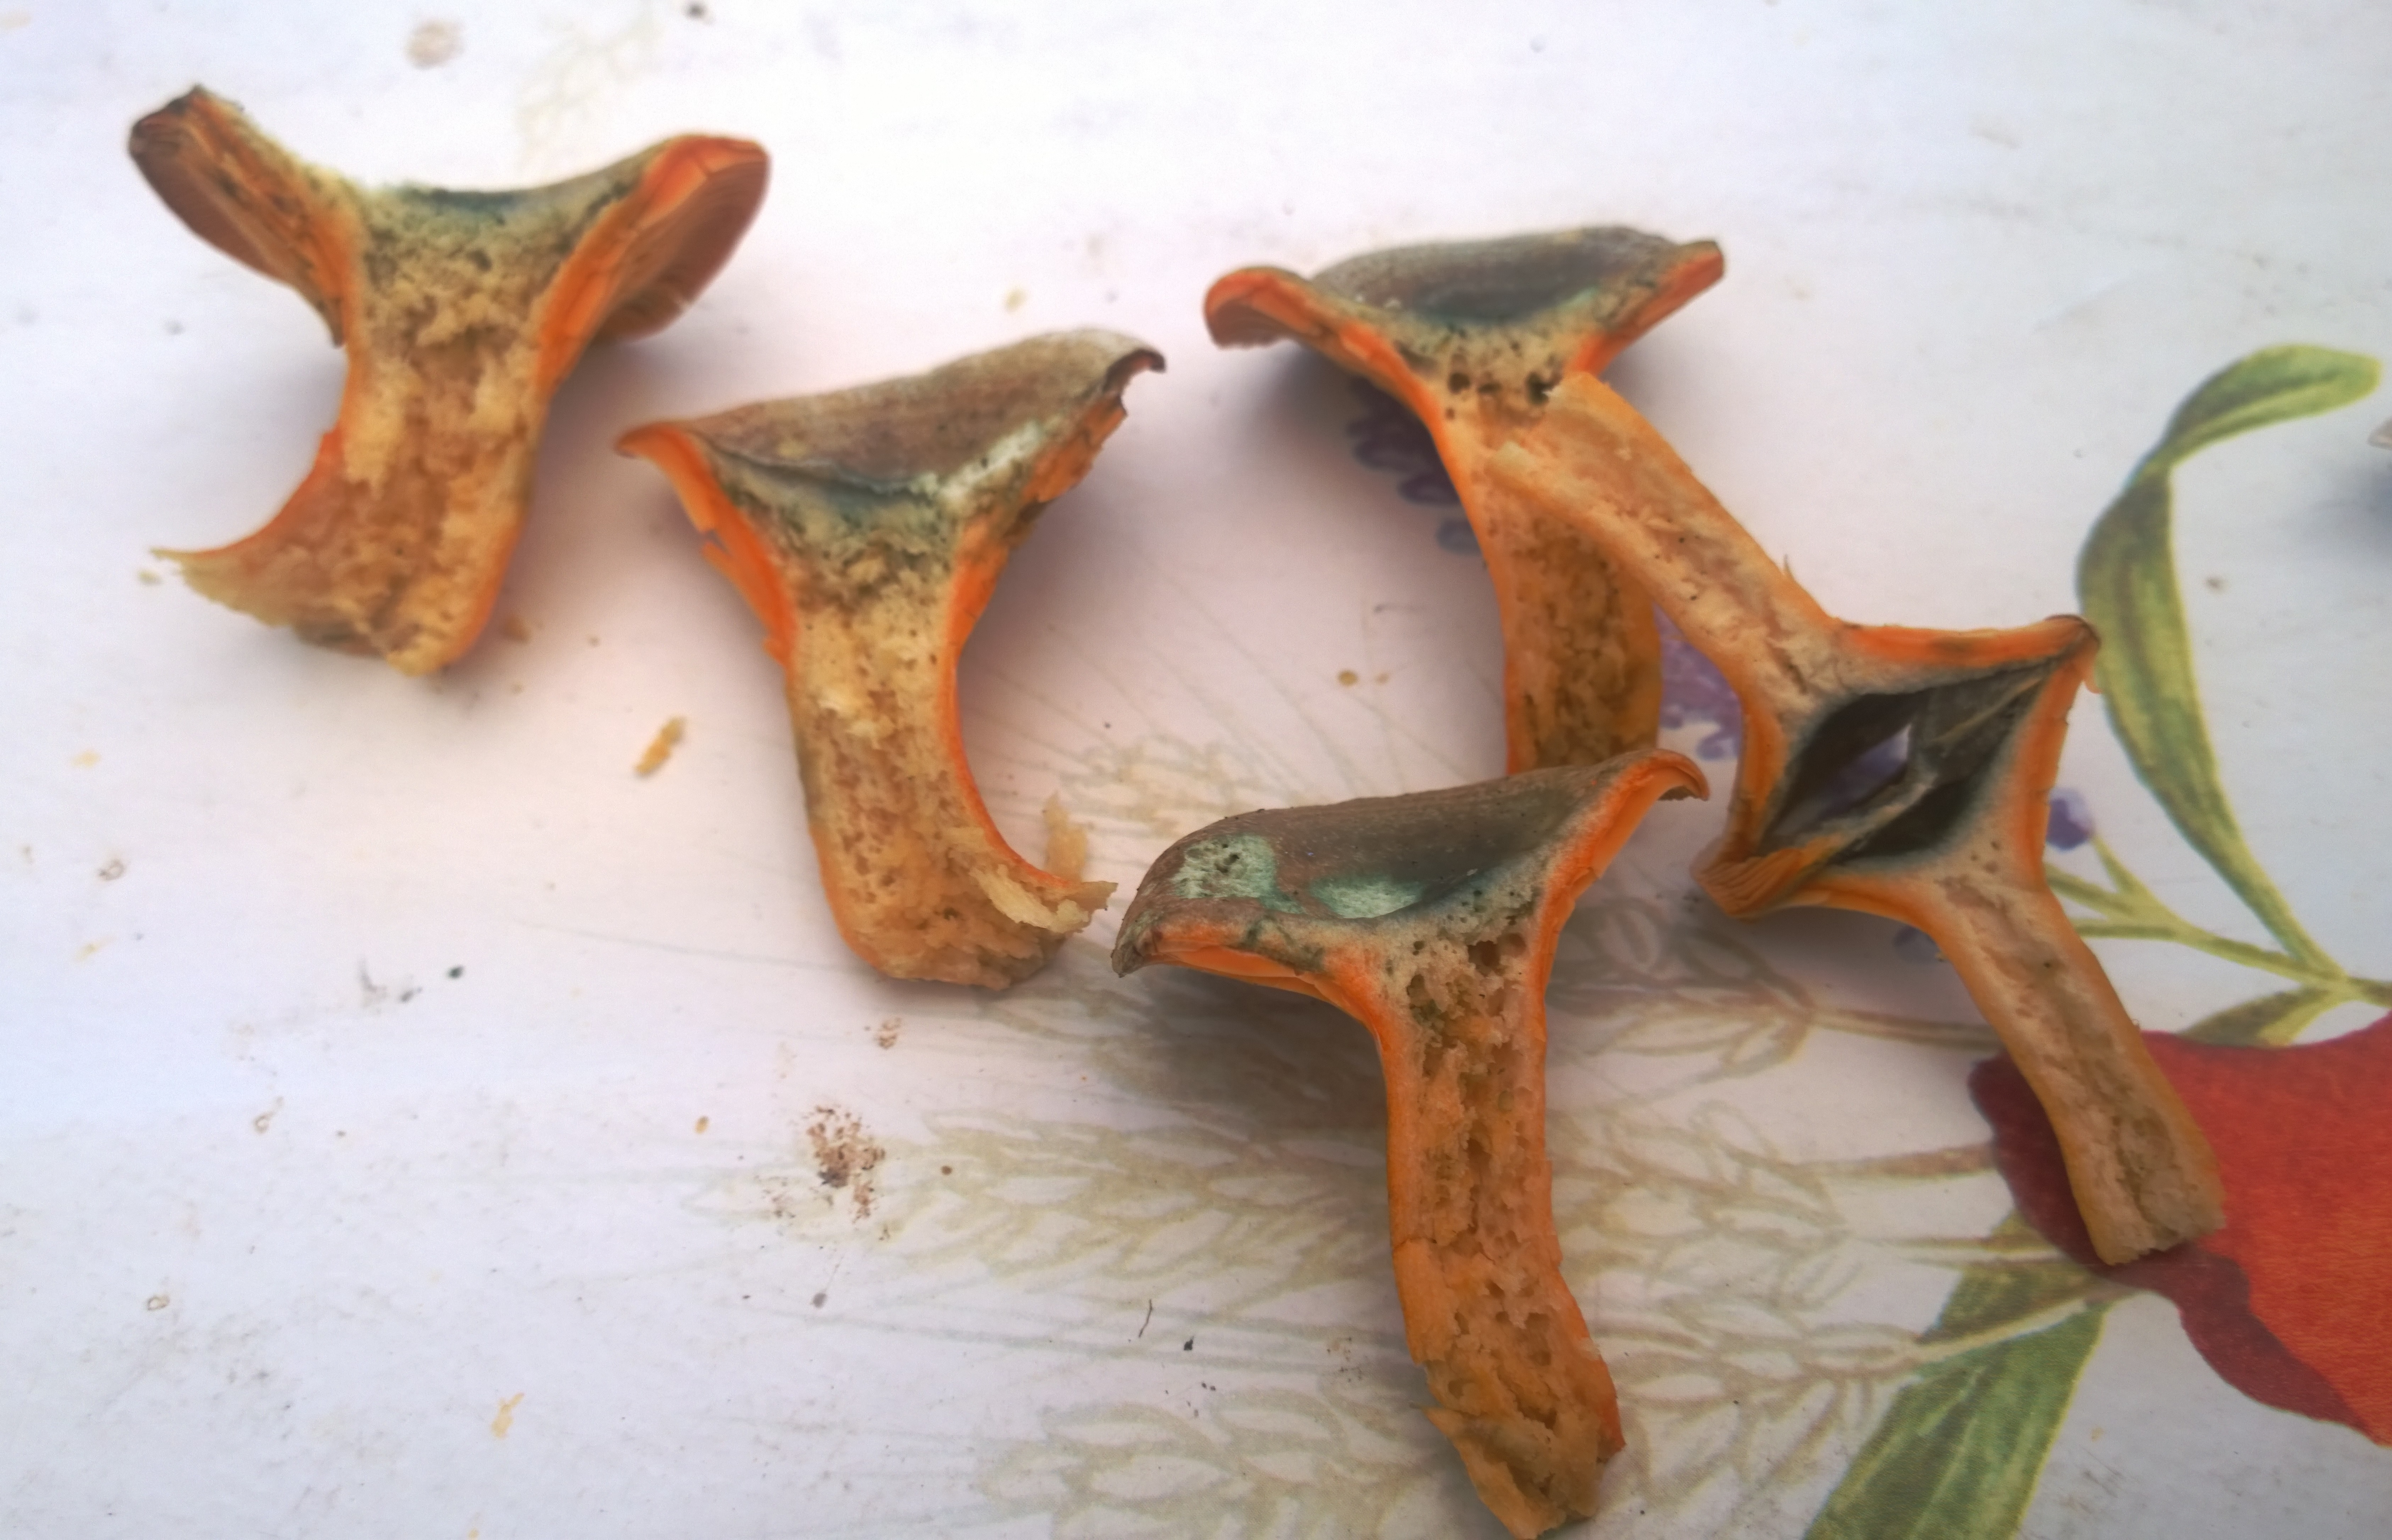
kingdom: Fungi
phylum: Basidiomycota
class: Agaricomycetes
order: Russulales
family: Russulaceae
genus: Lactarius
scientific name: Lactarius fennoscandicus
